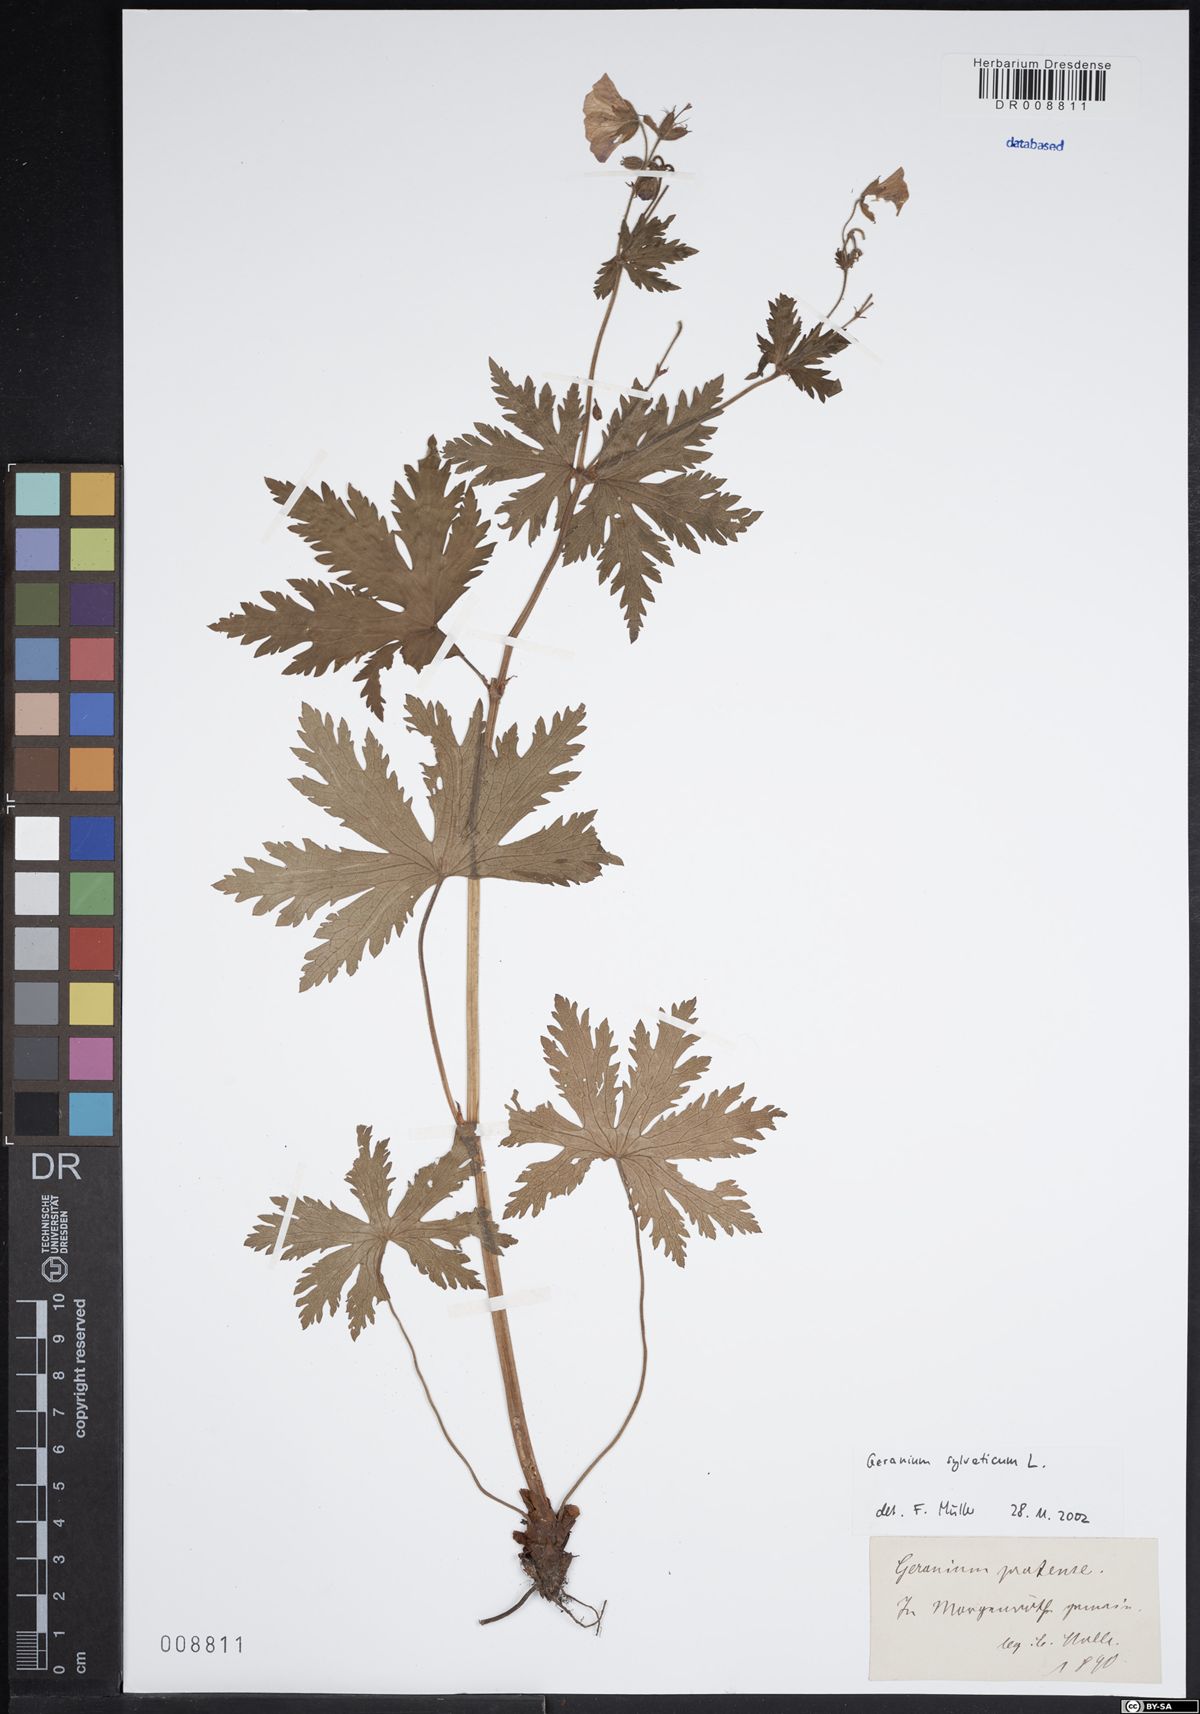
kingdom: Plantae
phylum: Tracheophyta
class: Magnoliopsida
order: Geraniales
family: Geraniaceae
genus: Geranium
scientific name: Geranium sylvaticum
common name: Wood crane's-bill
